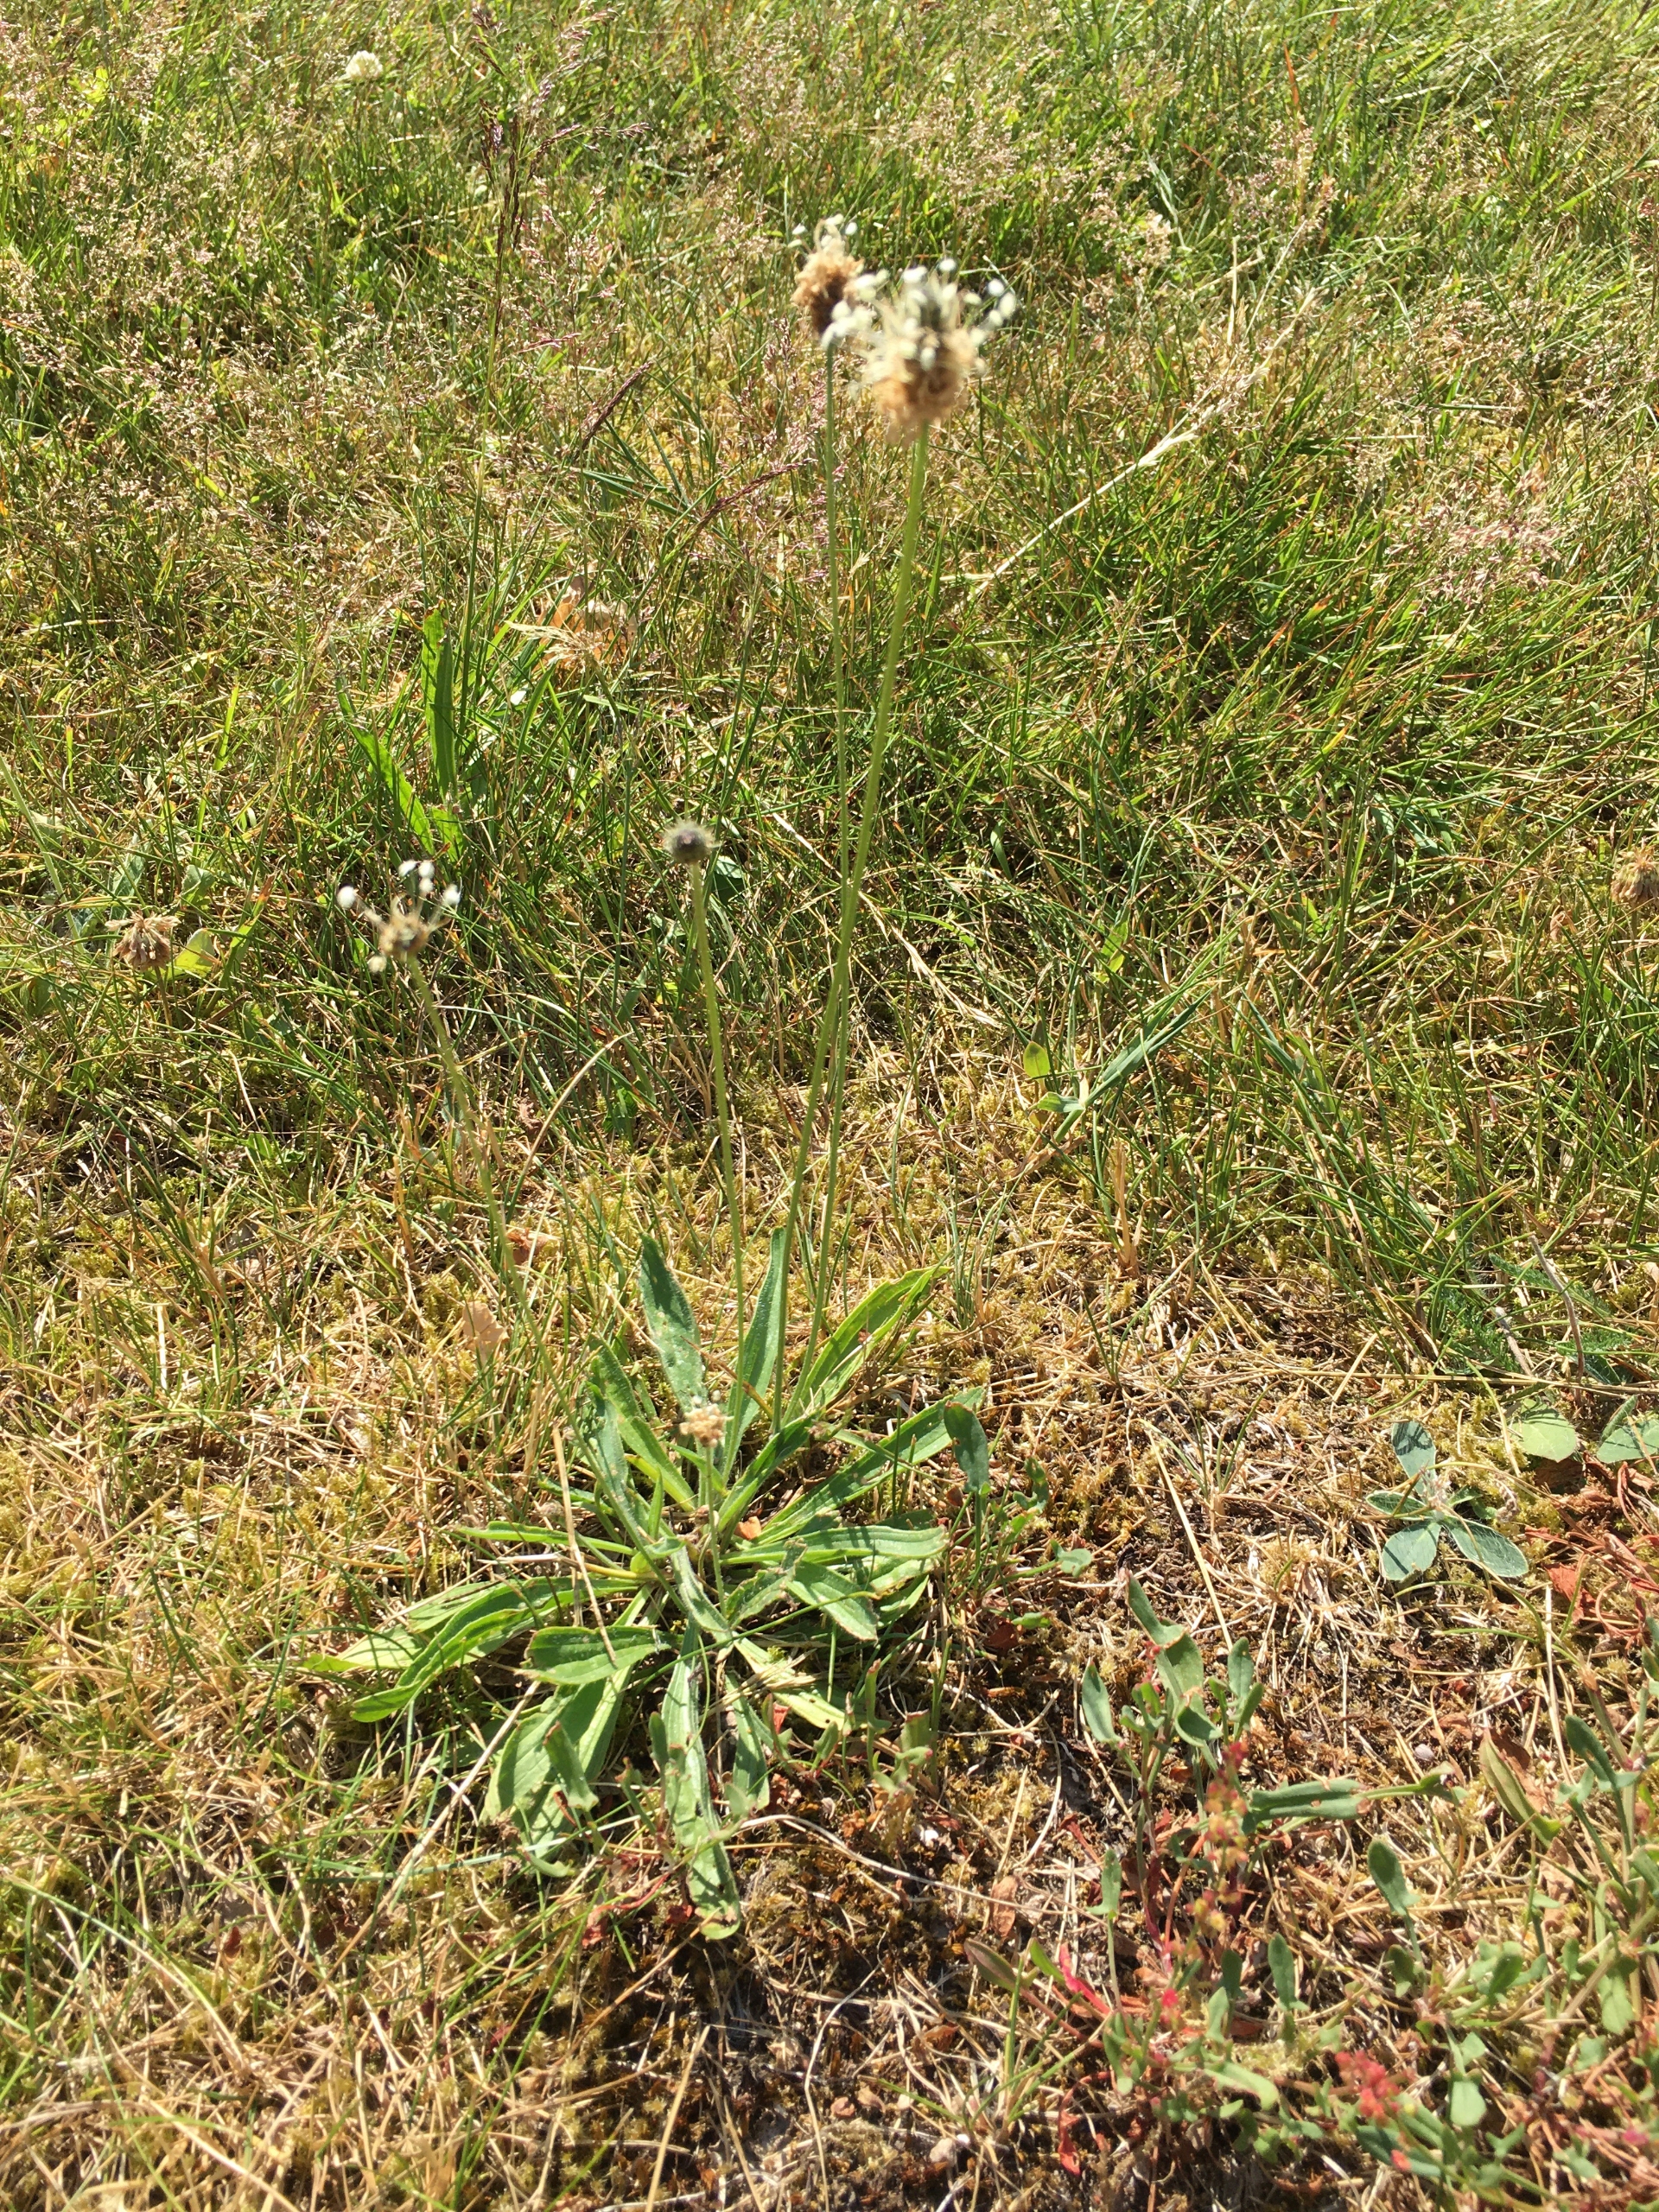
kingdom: Plantae
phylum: Tracheophyta
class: Magnoliopsida
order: Lamiales
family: Plantaginaceae
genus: Plantago
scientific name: Plantago lanceolata
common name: Lancet-vejbred
